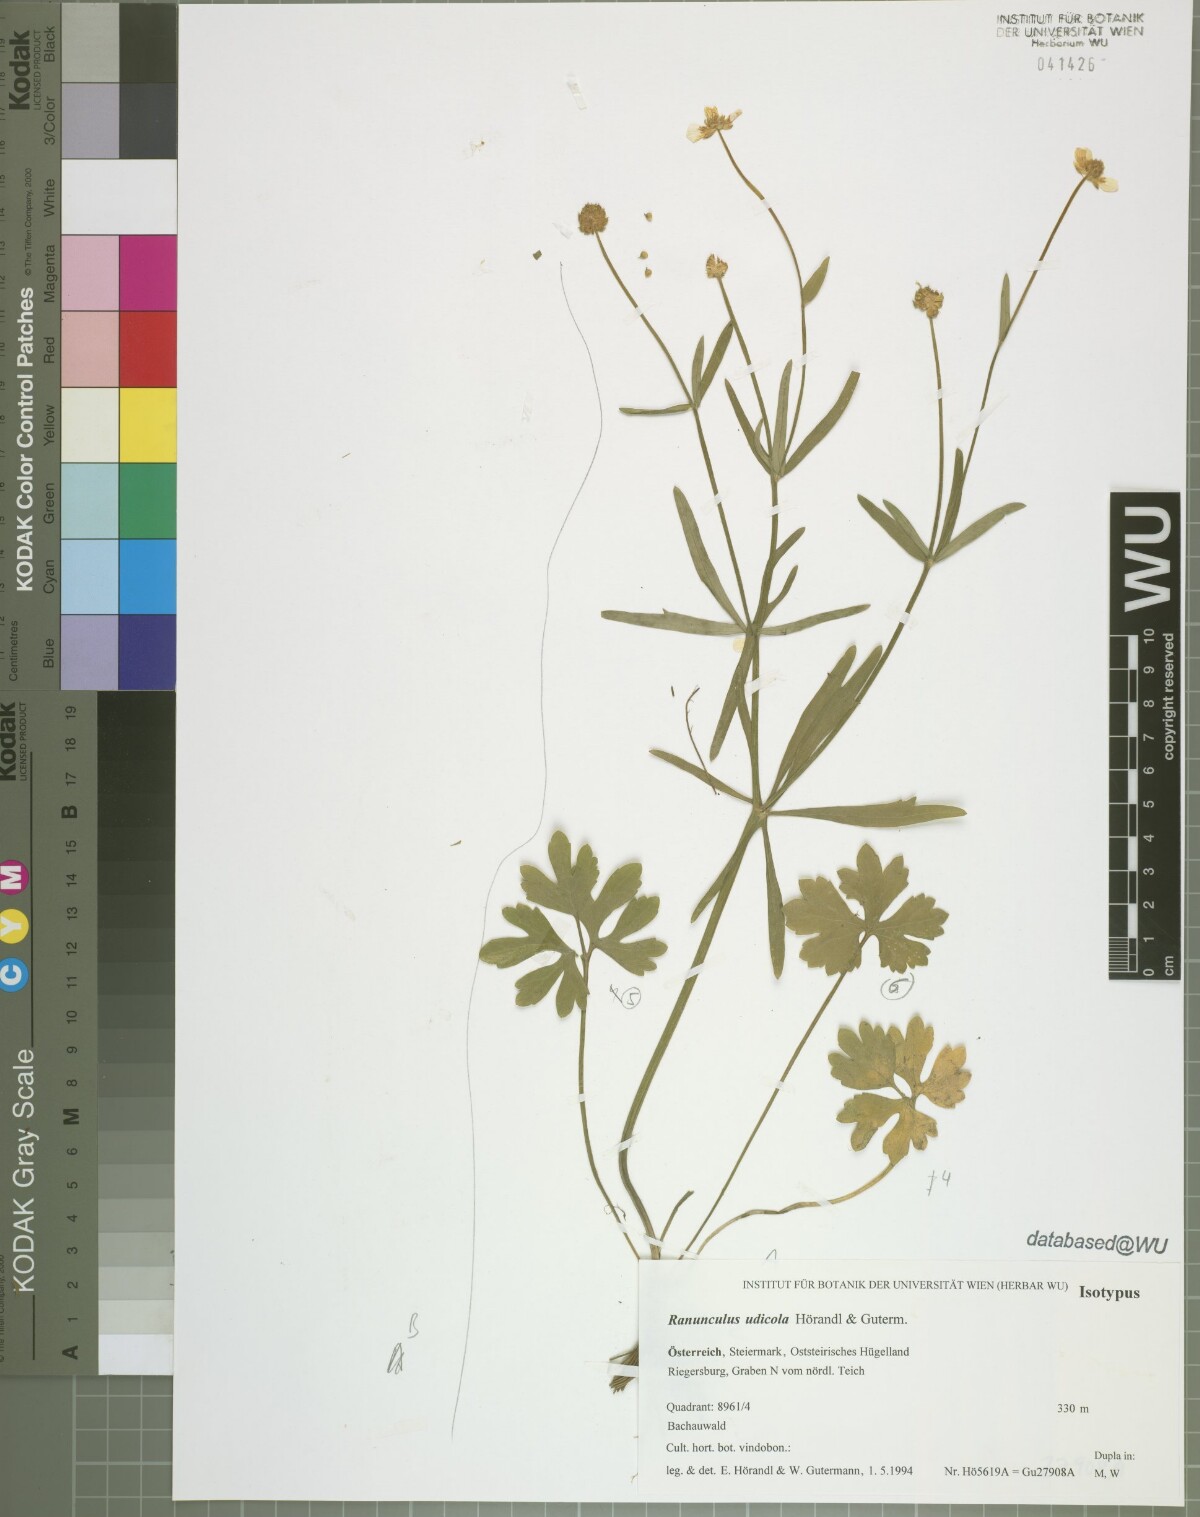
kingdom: Plantae
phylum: Tracheophyta
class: Magnoliopsida
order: Ranunculales
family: Ranunculaceae
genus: Ranunculus
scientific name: Ranunculus udicola
